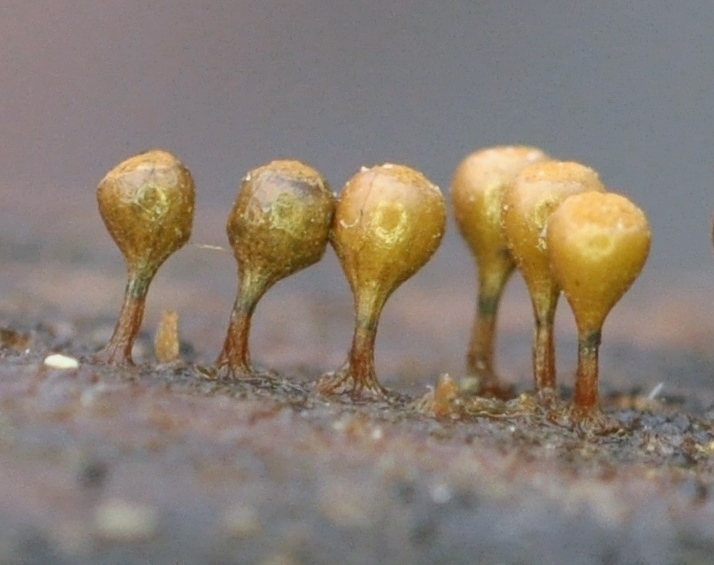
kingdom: Protozoa
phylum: Mycetozoa
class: Myxomycetes
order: Trichiales
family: Trichiaceae
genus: Trichia
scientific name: Trichia crateriformis
